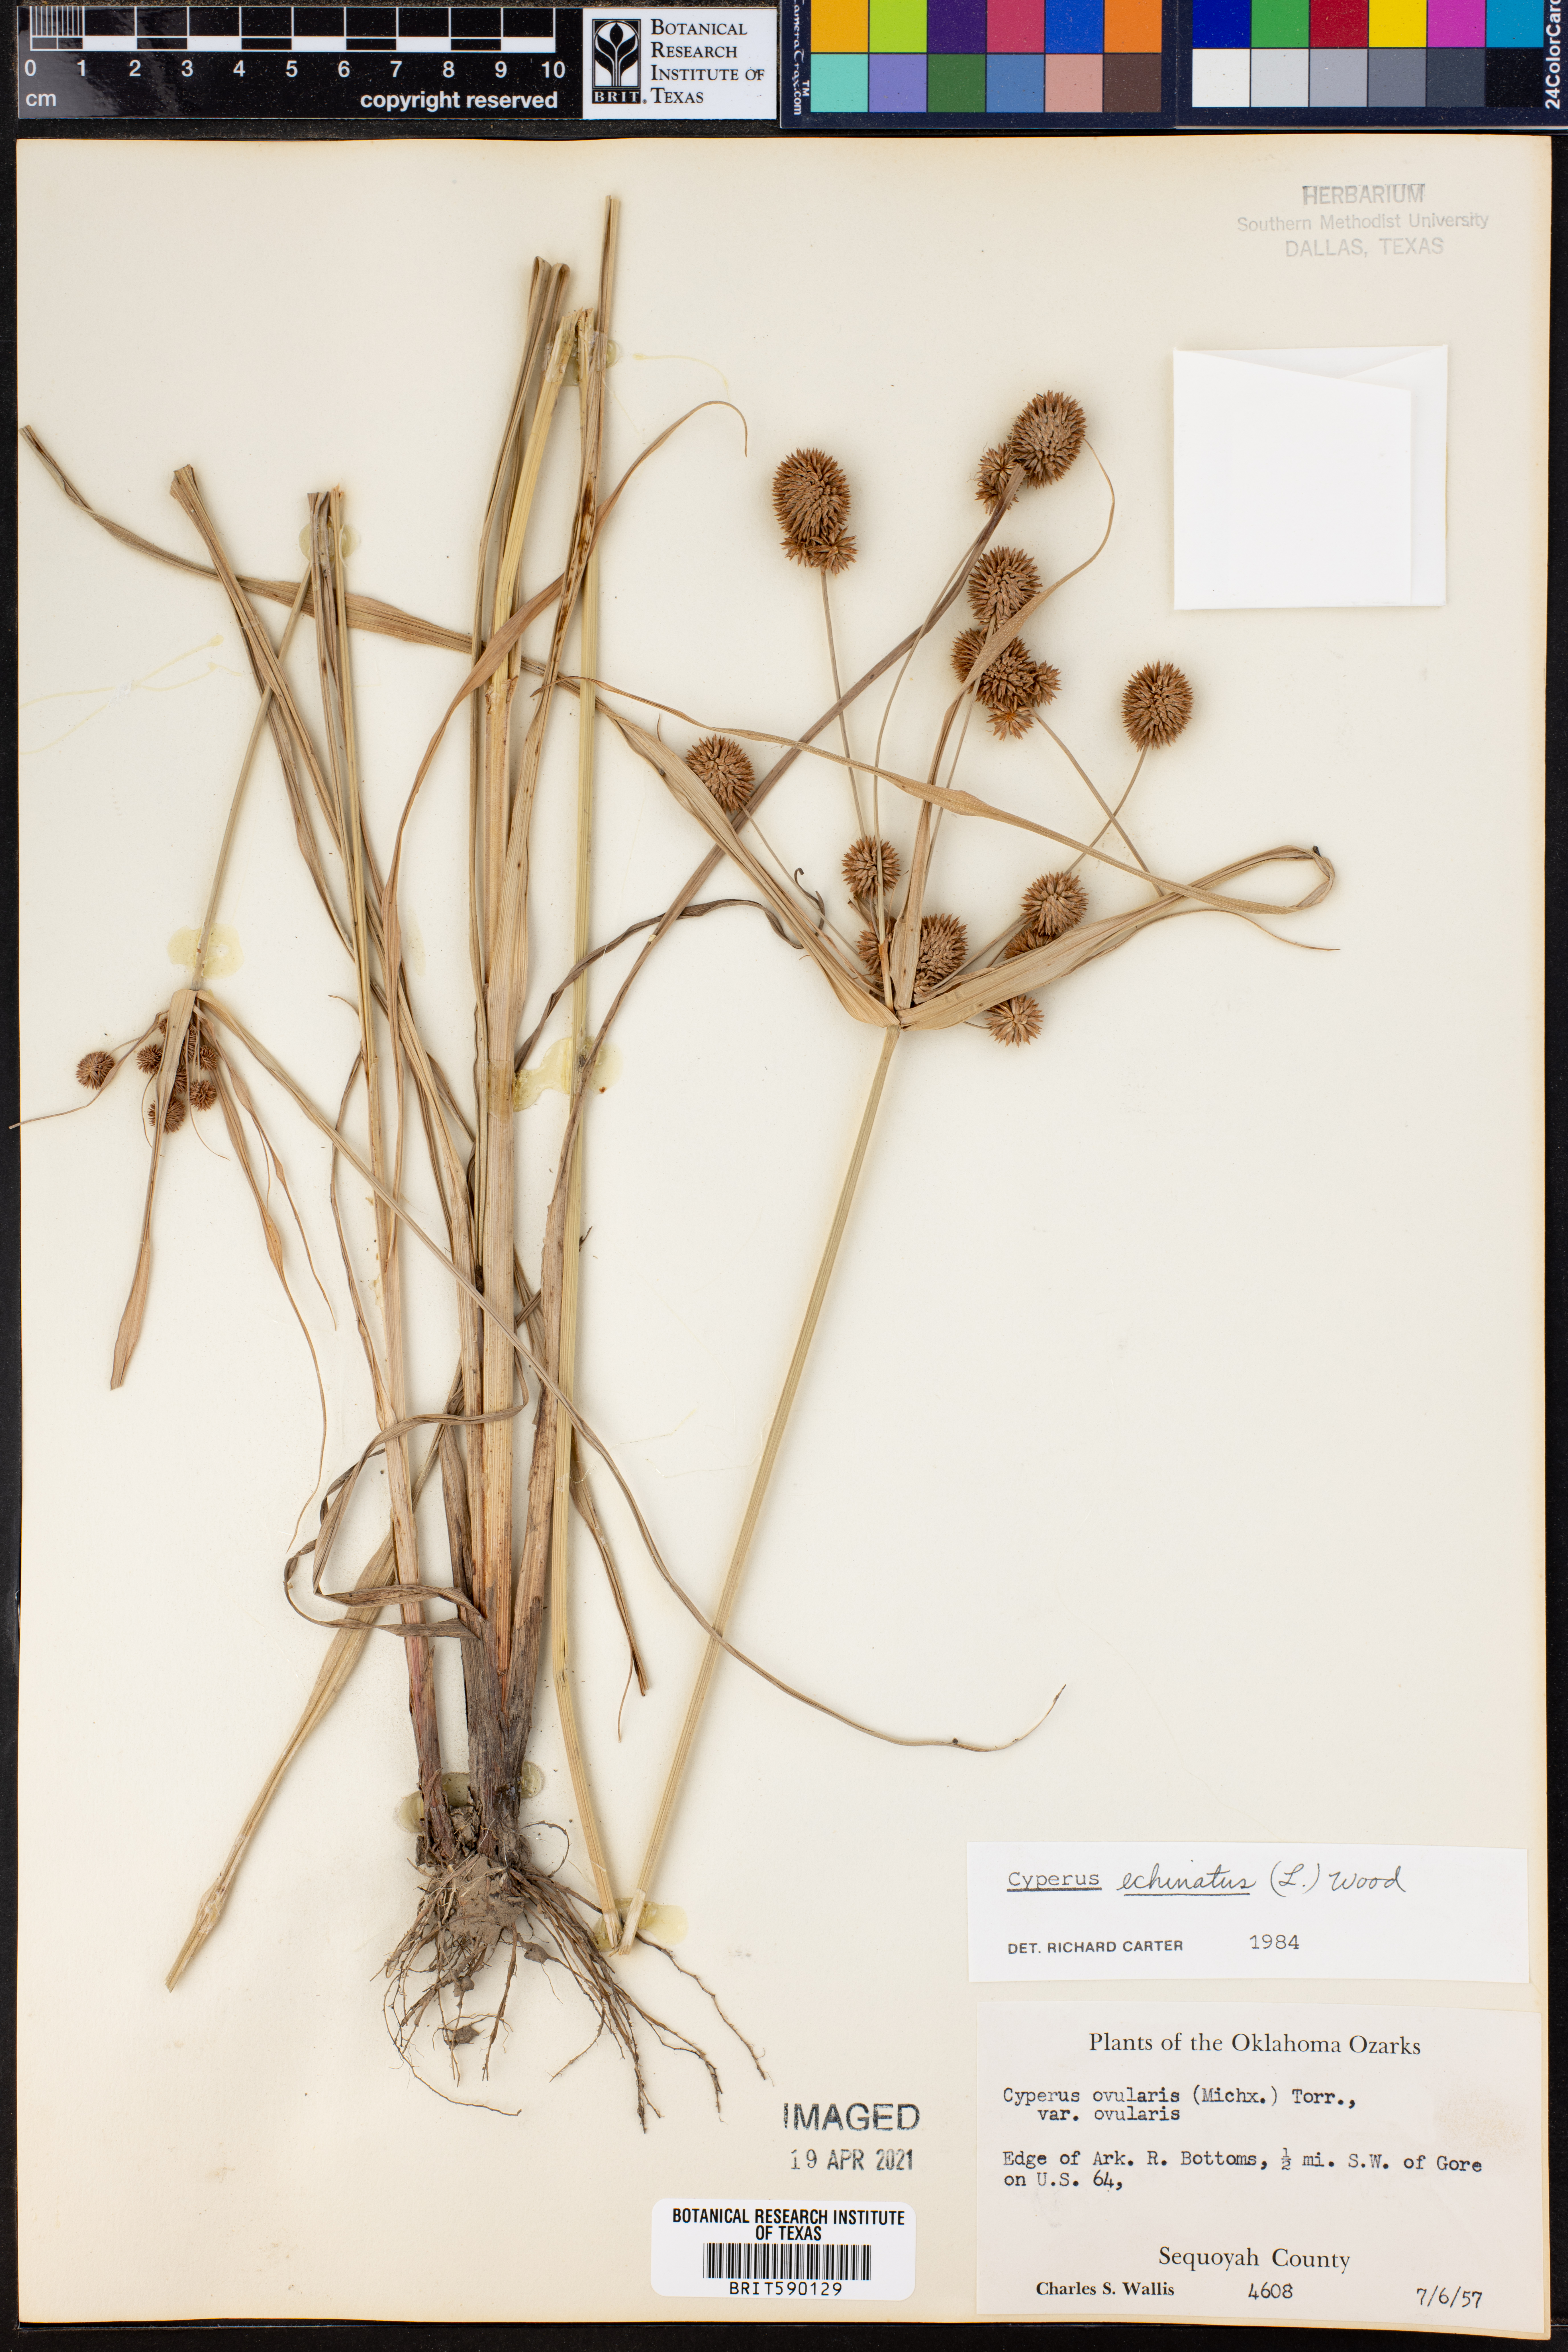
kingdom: Plantae
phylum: Tracheophyta
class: Liliopsida
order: Poales
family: Cyperaceae
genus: Cyperus
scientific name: Cyperus echinatus
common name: Teasel sedge
